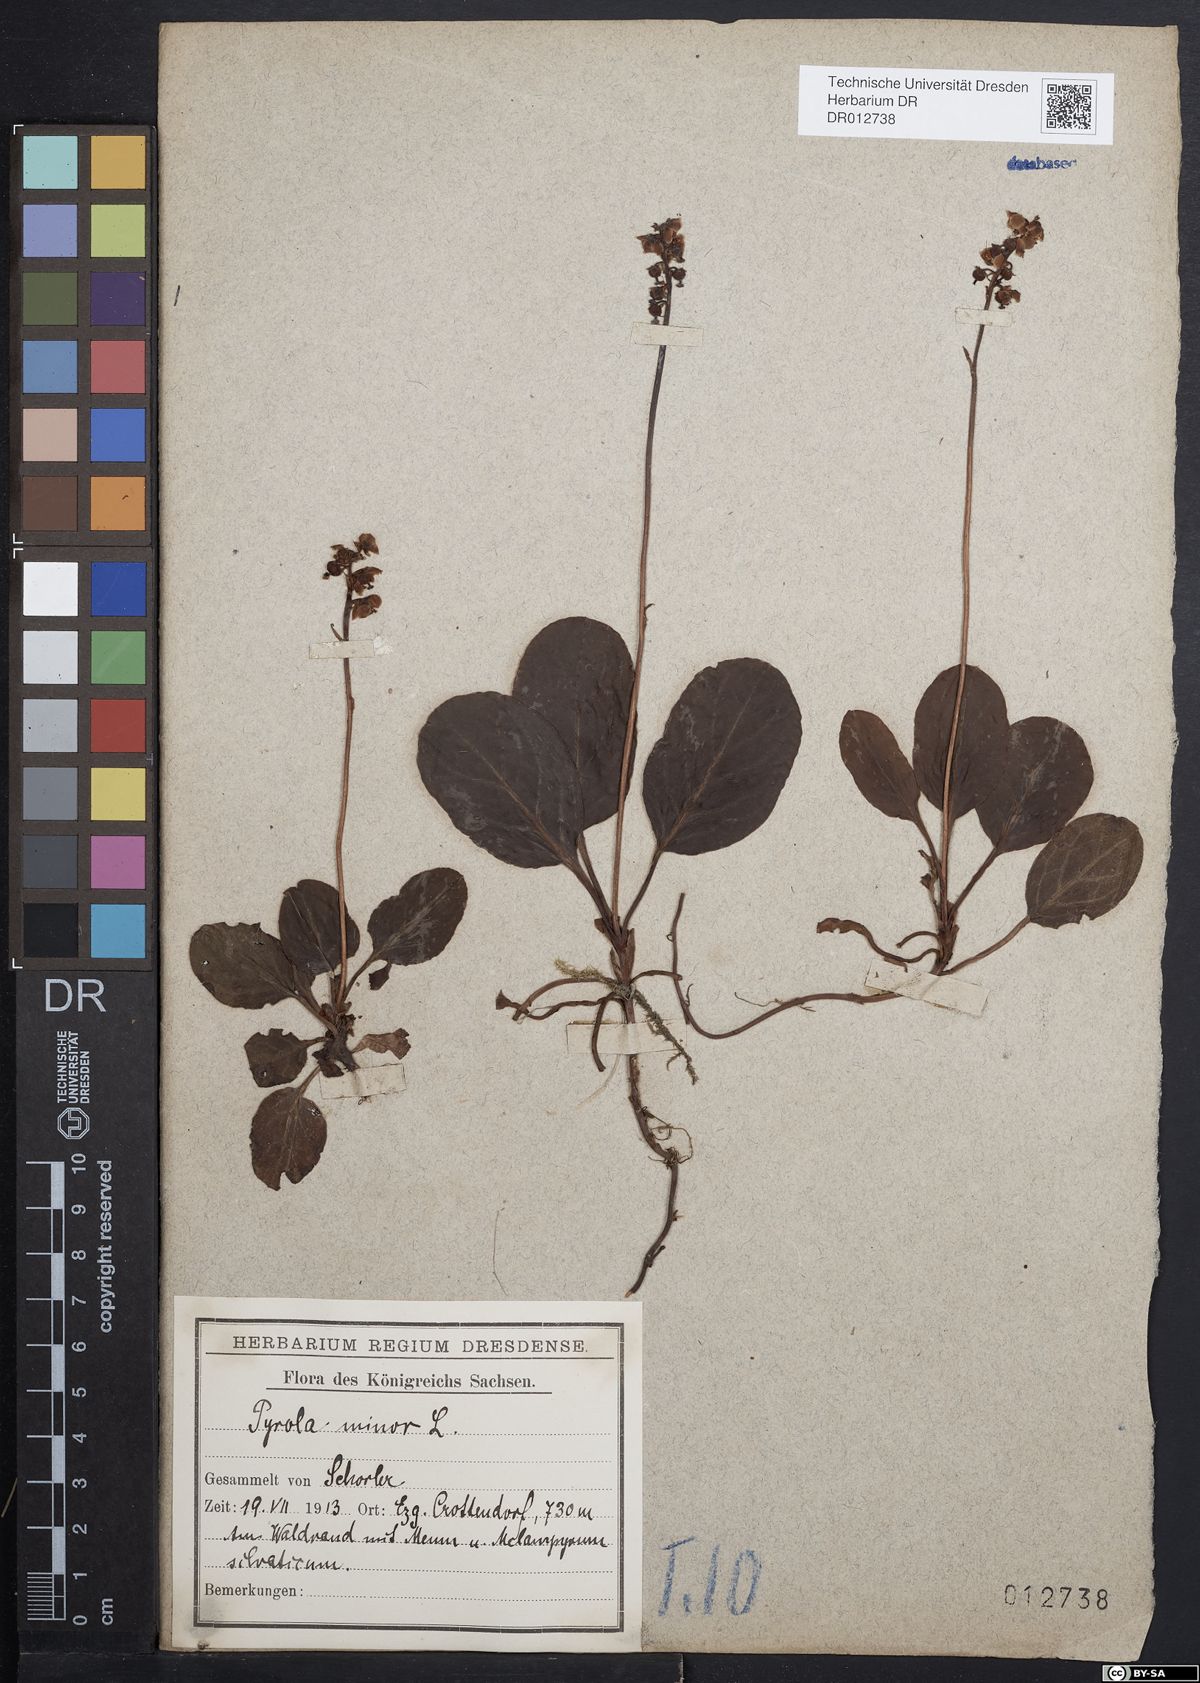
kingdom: Plantae
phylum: Tracheophyta
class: Magnoliopsida
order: Ericales
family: Ericaceae
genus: Pyrola
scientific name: Pyrola minor
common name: Common wintergreen
